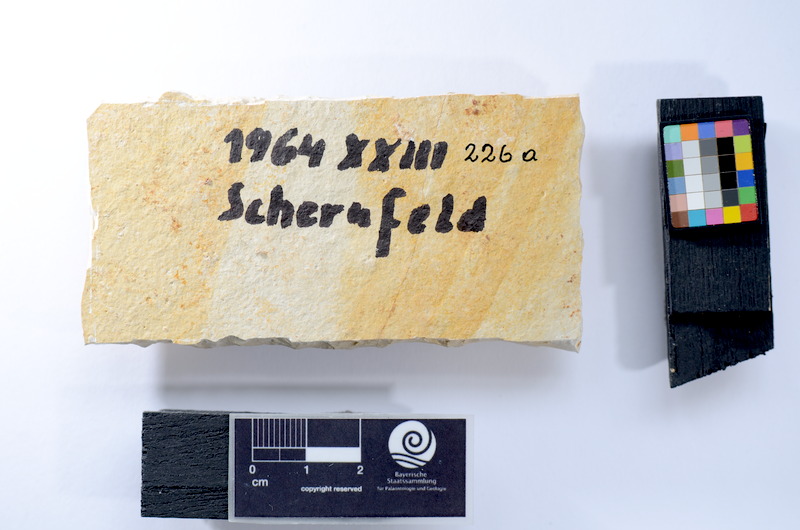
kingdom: Animalia
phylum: Chordata
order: Salmoniformes
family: Orthogonikleithridae
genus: Leptolepides
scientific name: Leptolepides
